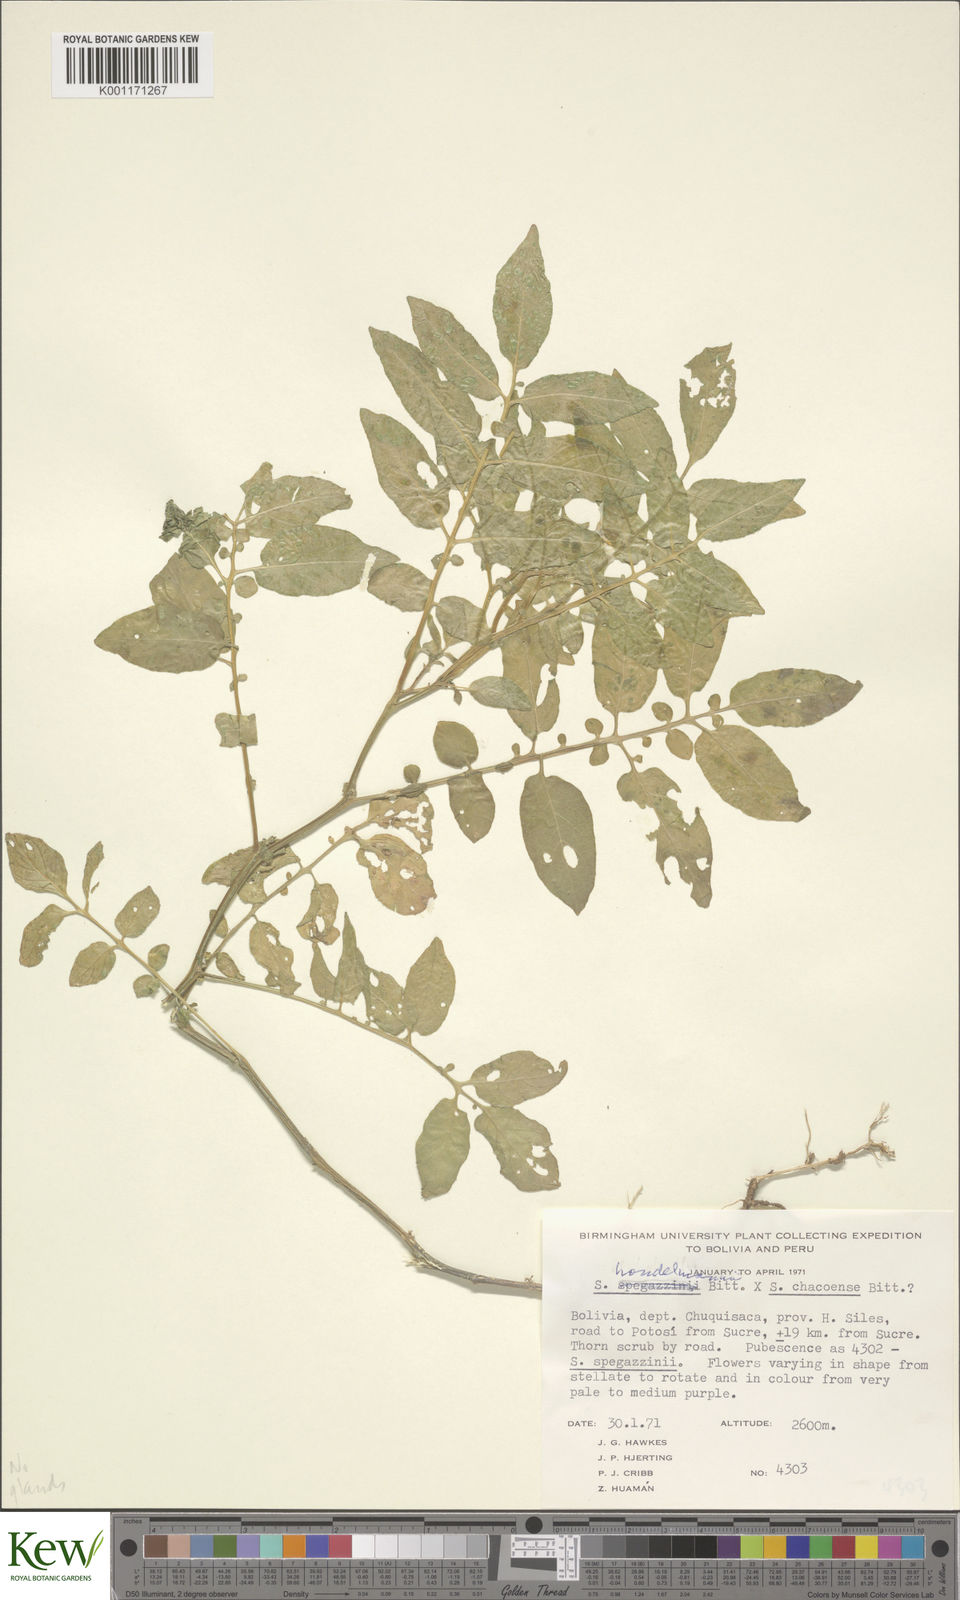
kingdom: Plantae
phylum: Tracheophyta
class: Magnoliopsida
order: Solanales
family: Solanaceae
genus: Solanum
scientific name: Solanum brevicaule
